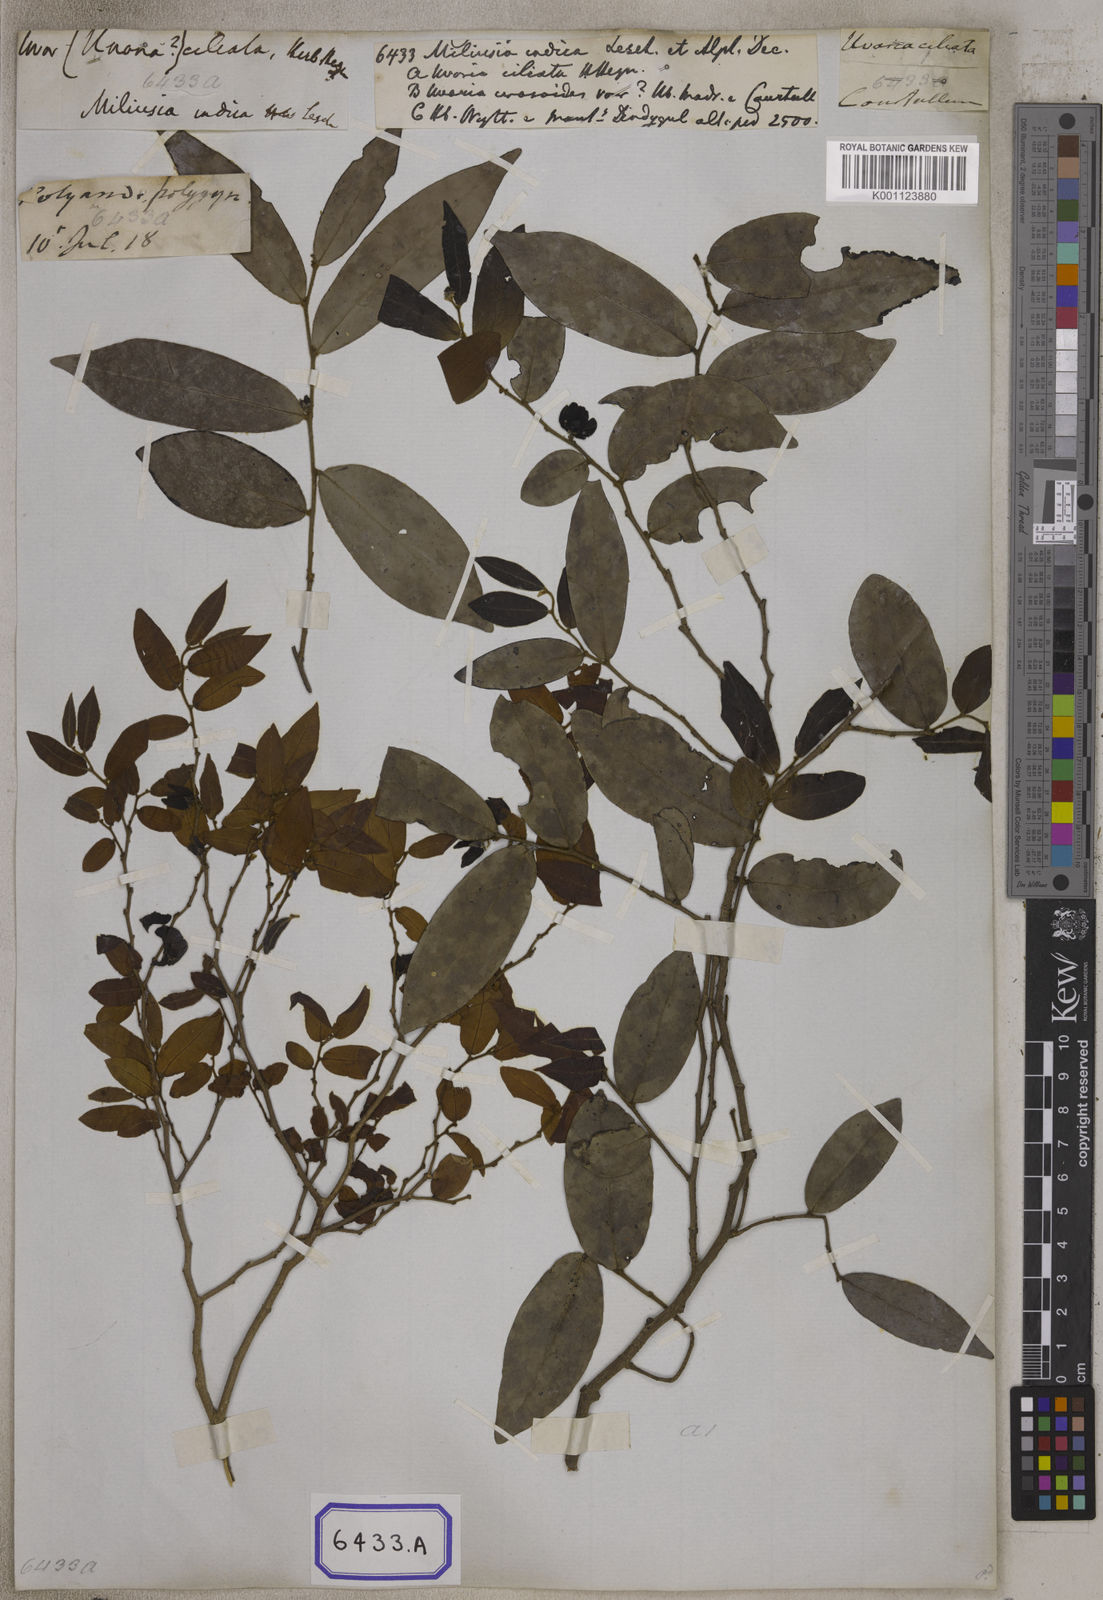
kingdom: Plantae
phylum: Tracheophyta
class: Magnoliopsida
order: Magnoliales
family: Annonaceae
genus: Miliusa
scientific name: Miliusa indica
